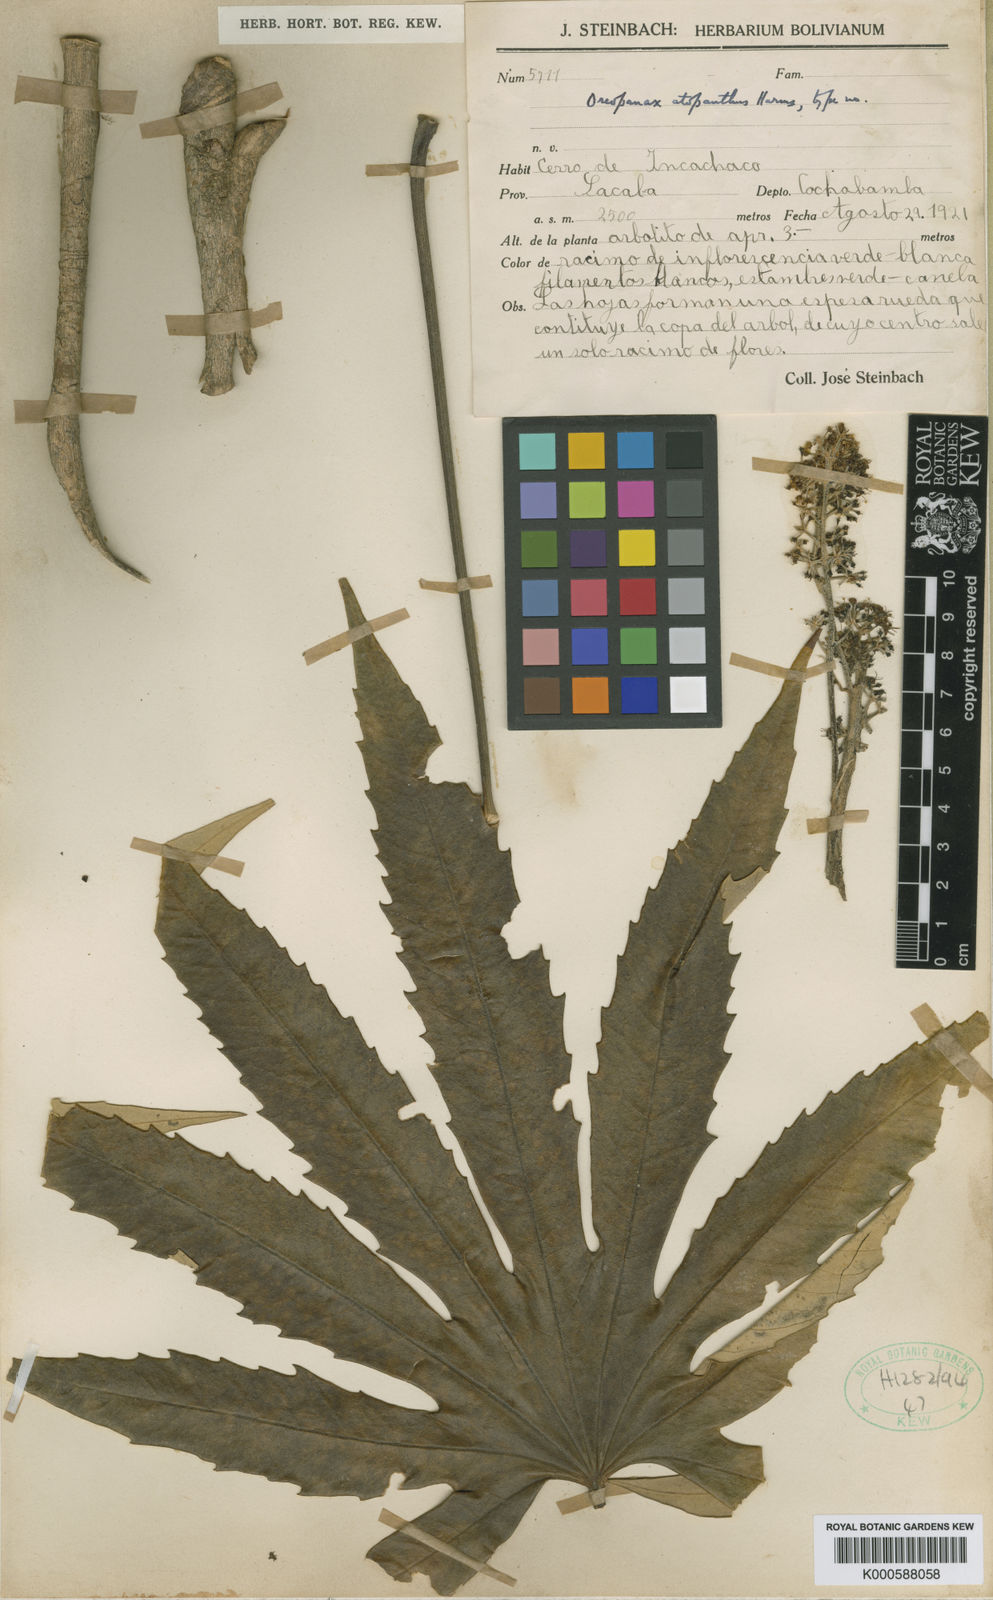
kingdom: Plantae
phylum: Tracheophyta
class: Magnoliopsida
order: Apiales
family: Araliaceae
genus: Oreopanax
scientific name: Oreopanax atopanthus
